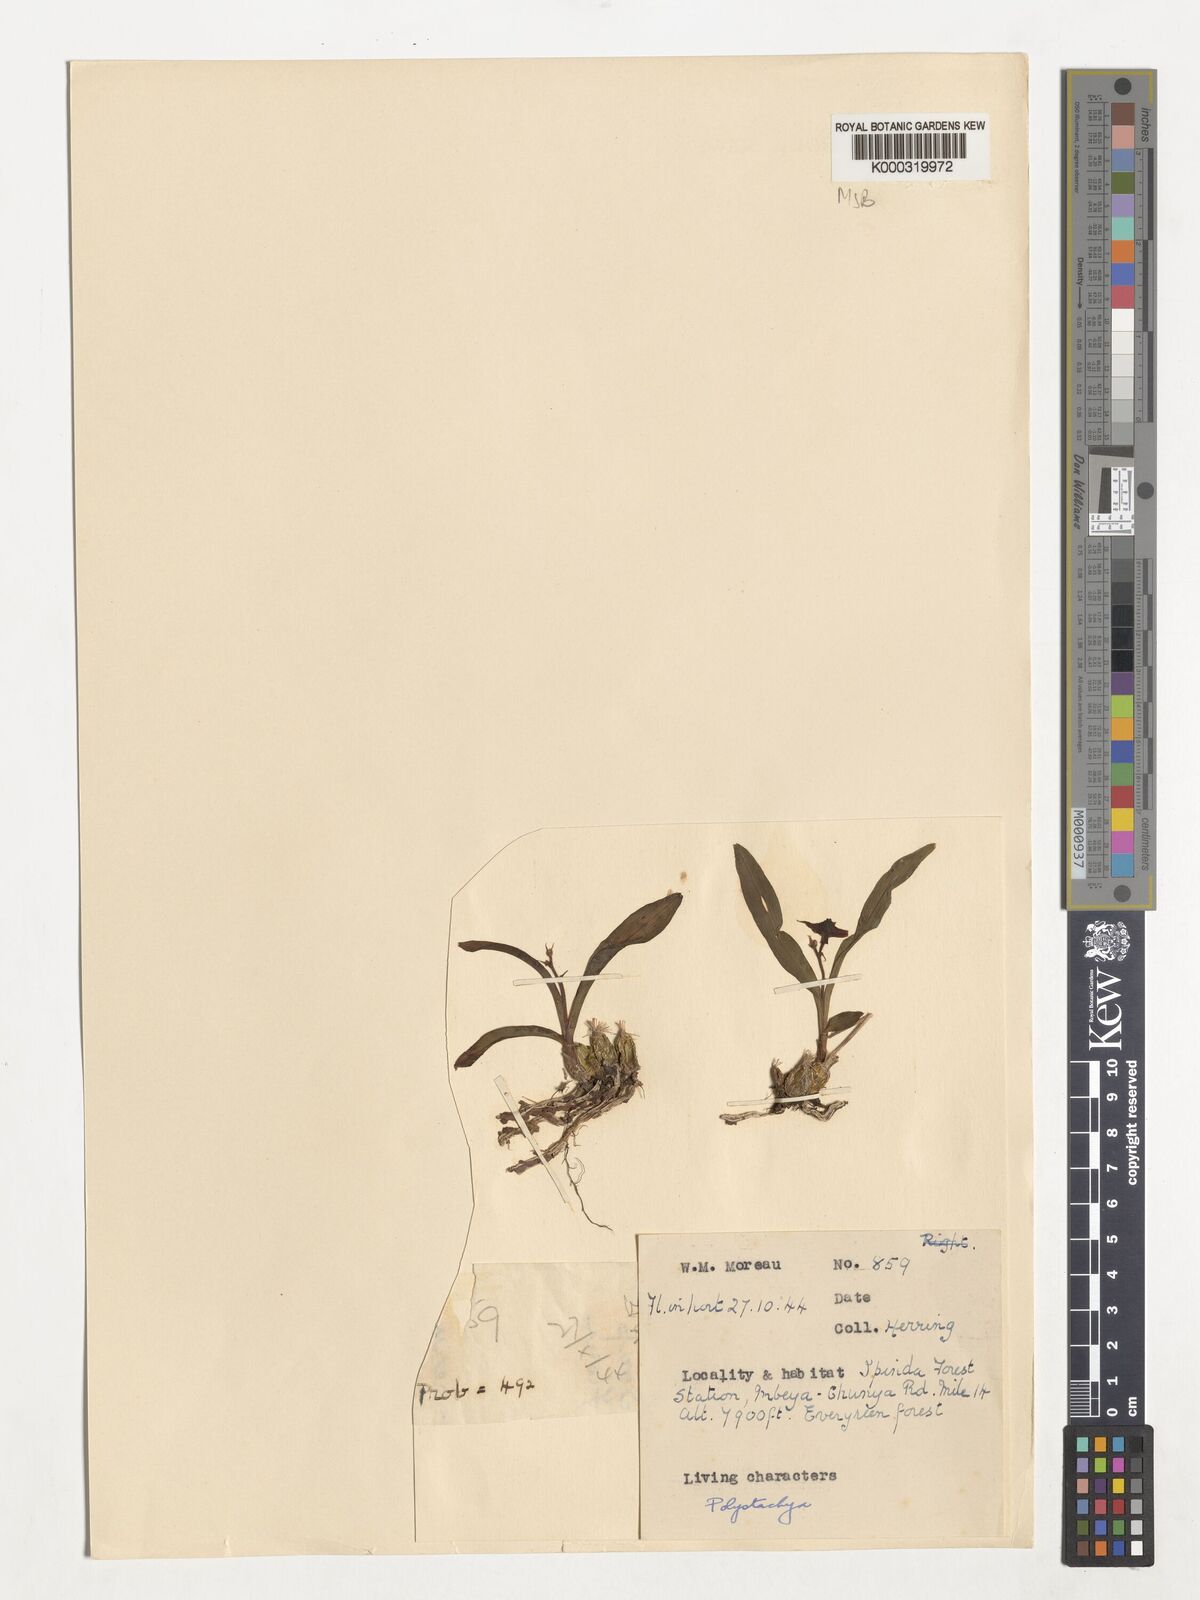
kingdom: Plantae
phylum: Tracheophyta
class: Liliopsida
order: Asparagales
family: Orchidaceae
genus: Polystachya
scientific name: Polystachya acridolens
